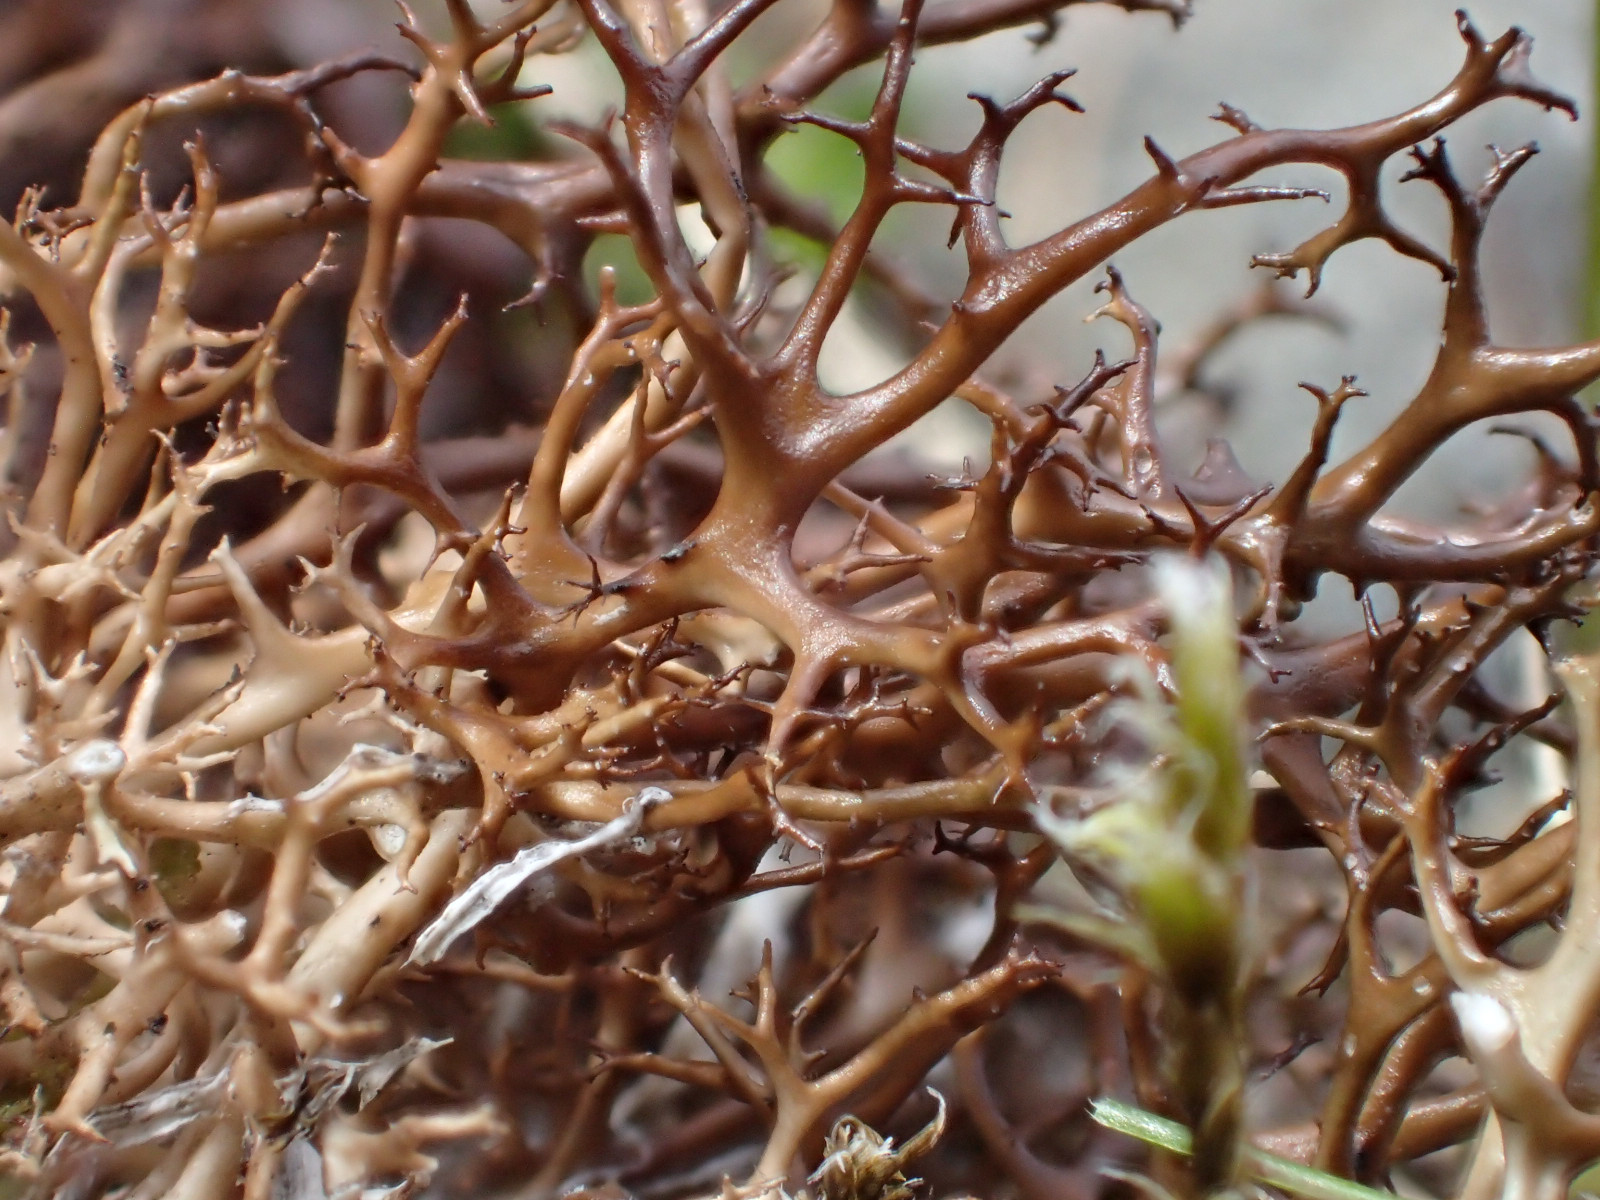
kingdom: Fungi
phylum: Ascomycota
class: Lecanoromycetes
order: Lecanorales
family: Parmeliaceae
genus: Cetraria
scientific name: Cetraria aculeata
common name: grubet tjørnelav
